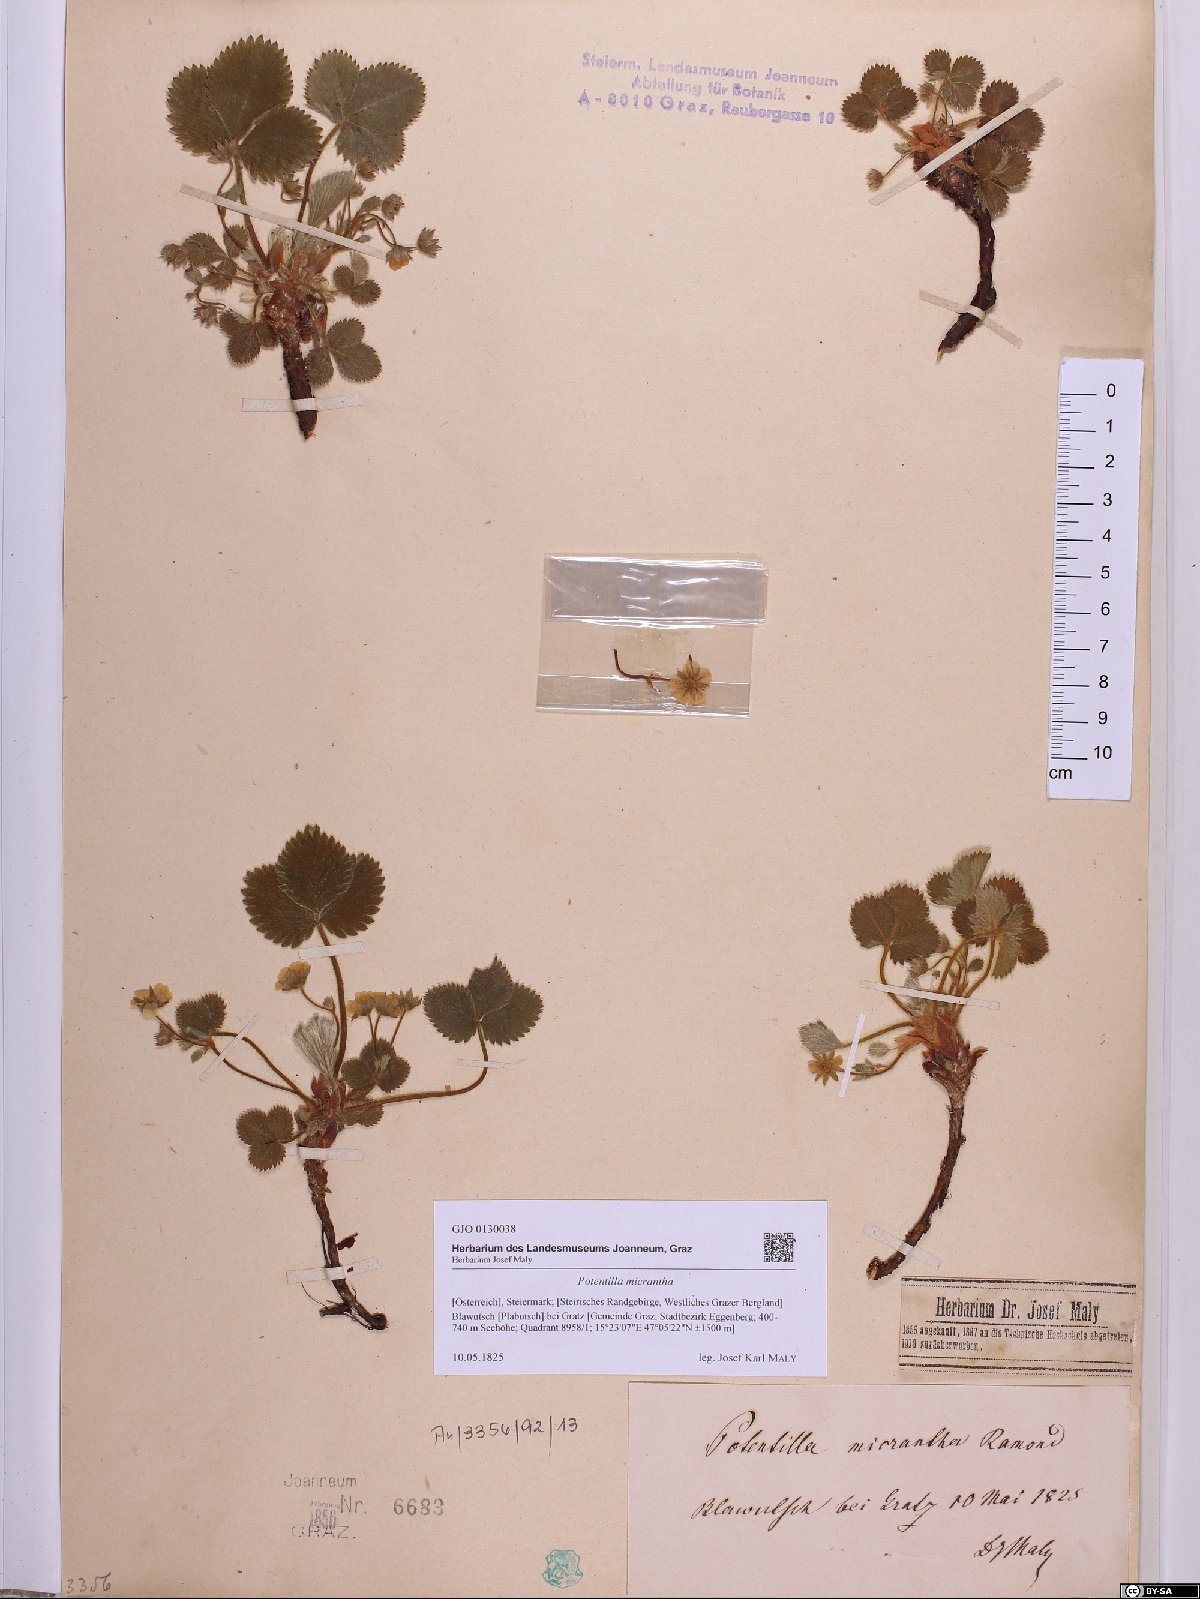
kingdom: Plantae
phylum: Tracheophyta
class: Magnoliopsida
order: Rosales
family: Rosaceae
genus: Potentilla
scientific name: Potentilla micrantha
